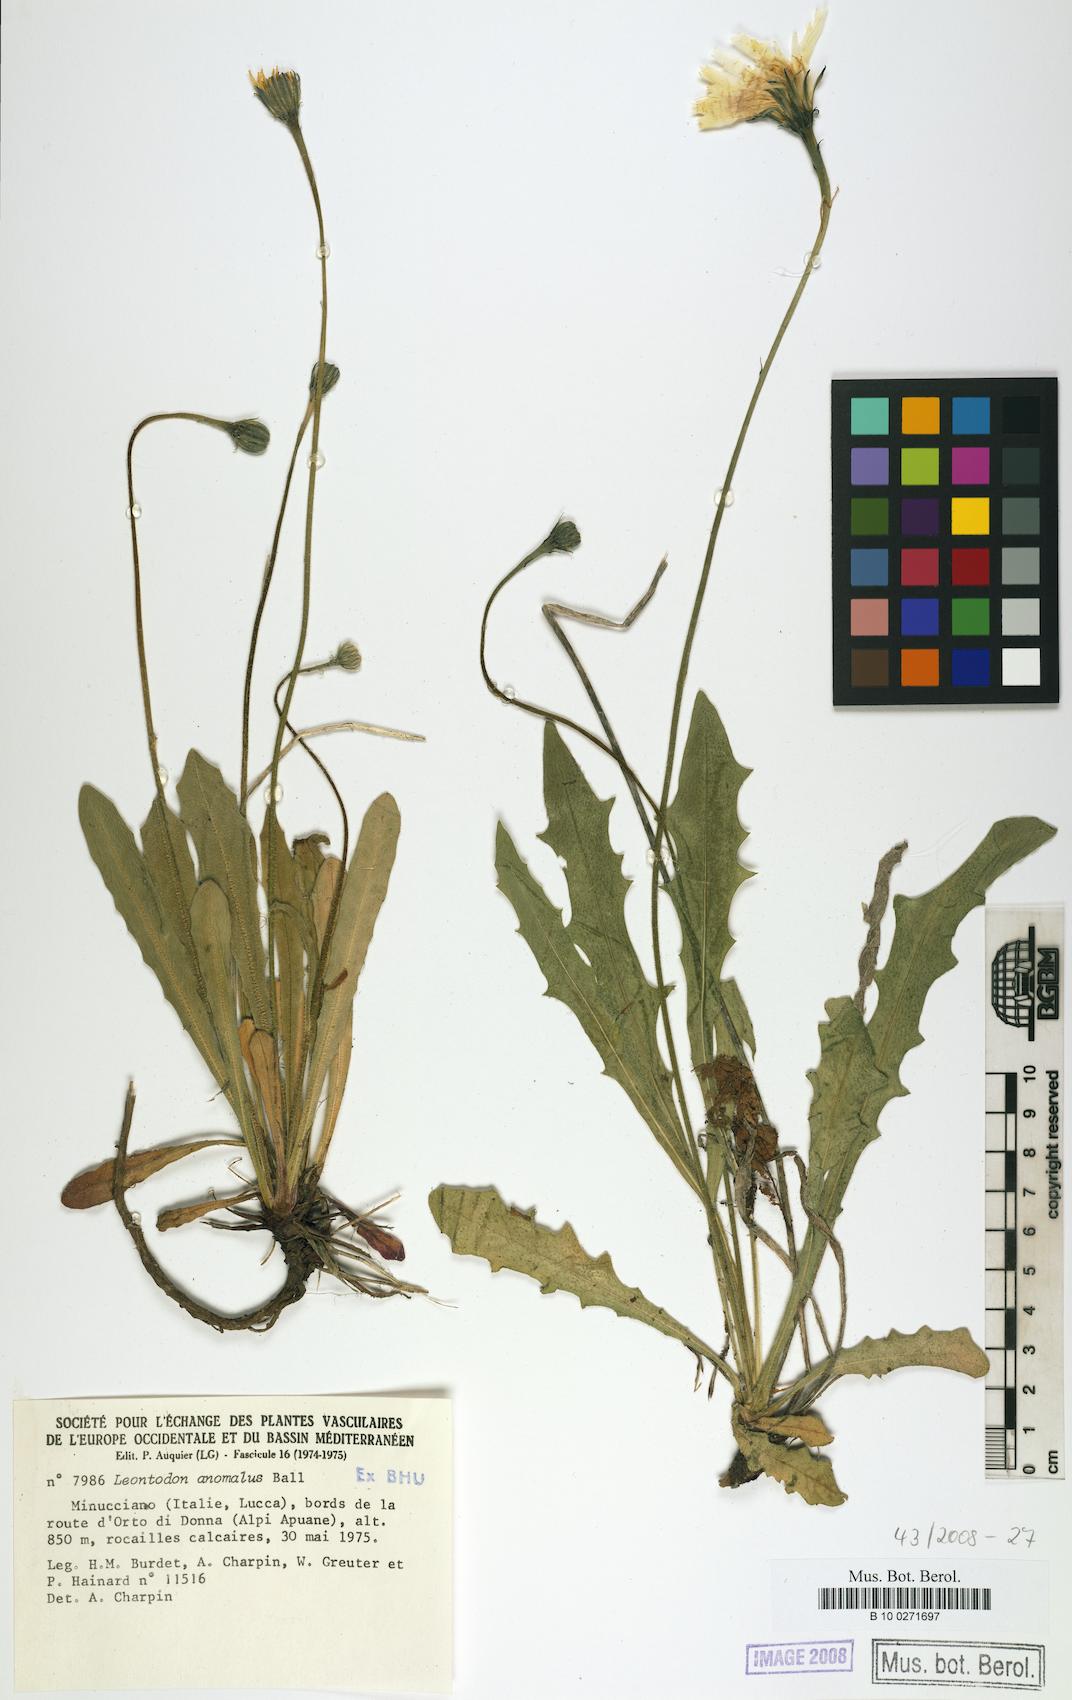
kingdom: Plantae
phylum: Tracheophyta
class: Magnoliopsida
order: Asterales
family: Asteraceae
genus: Leontodon
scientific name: Leontodon anomalus
